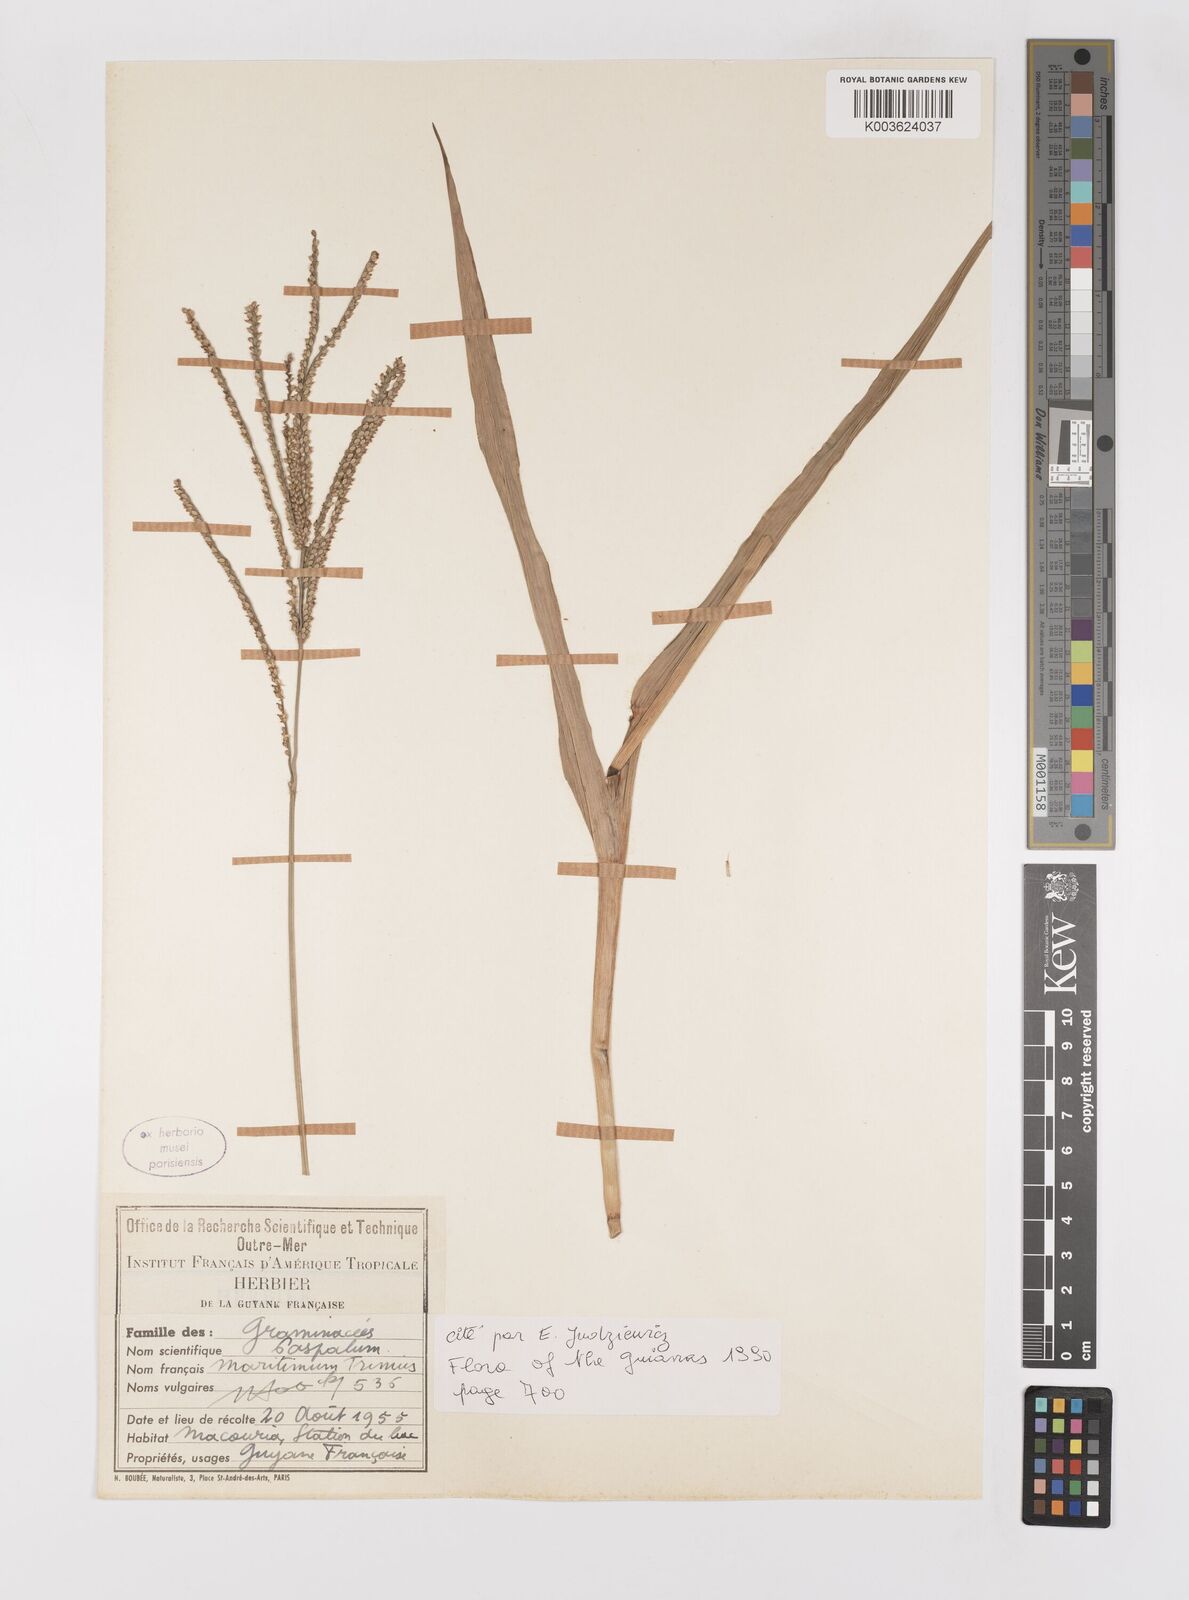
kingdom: Plantae
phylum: Tracheophyta
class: Liliopsida
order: Poales
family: Poaceae
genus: Paspalum
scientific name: Paspalum maritimum
